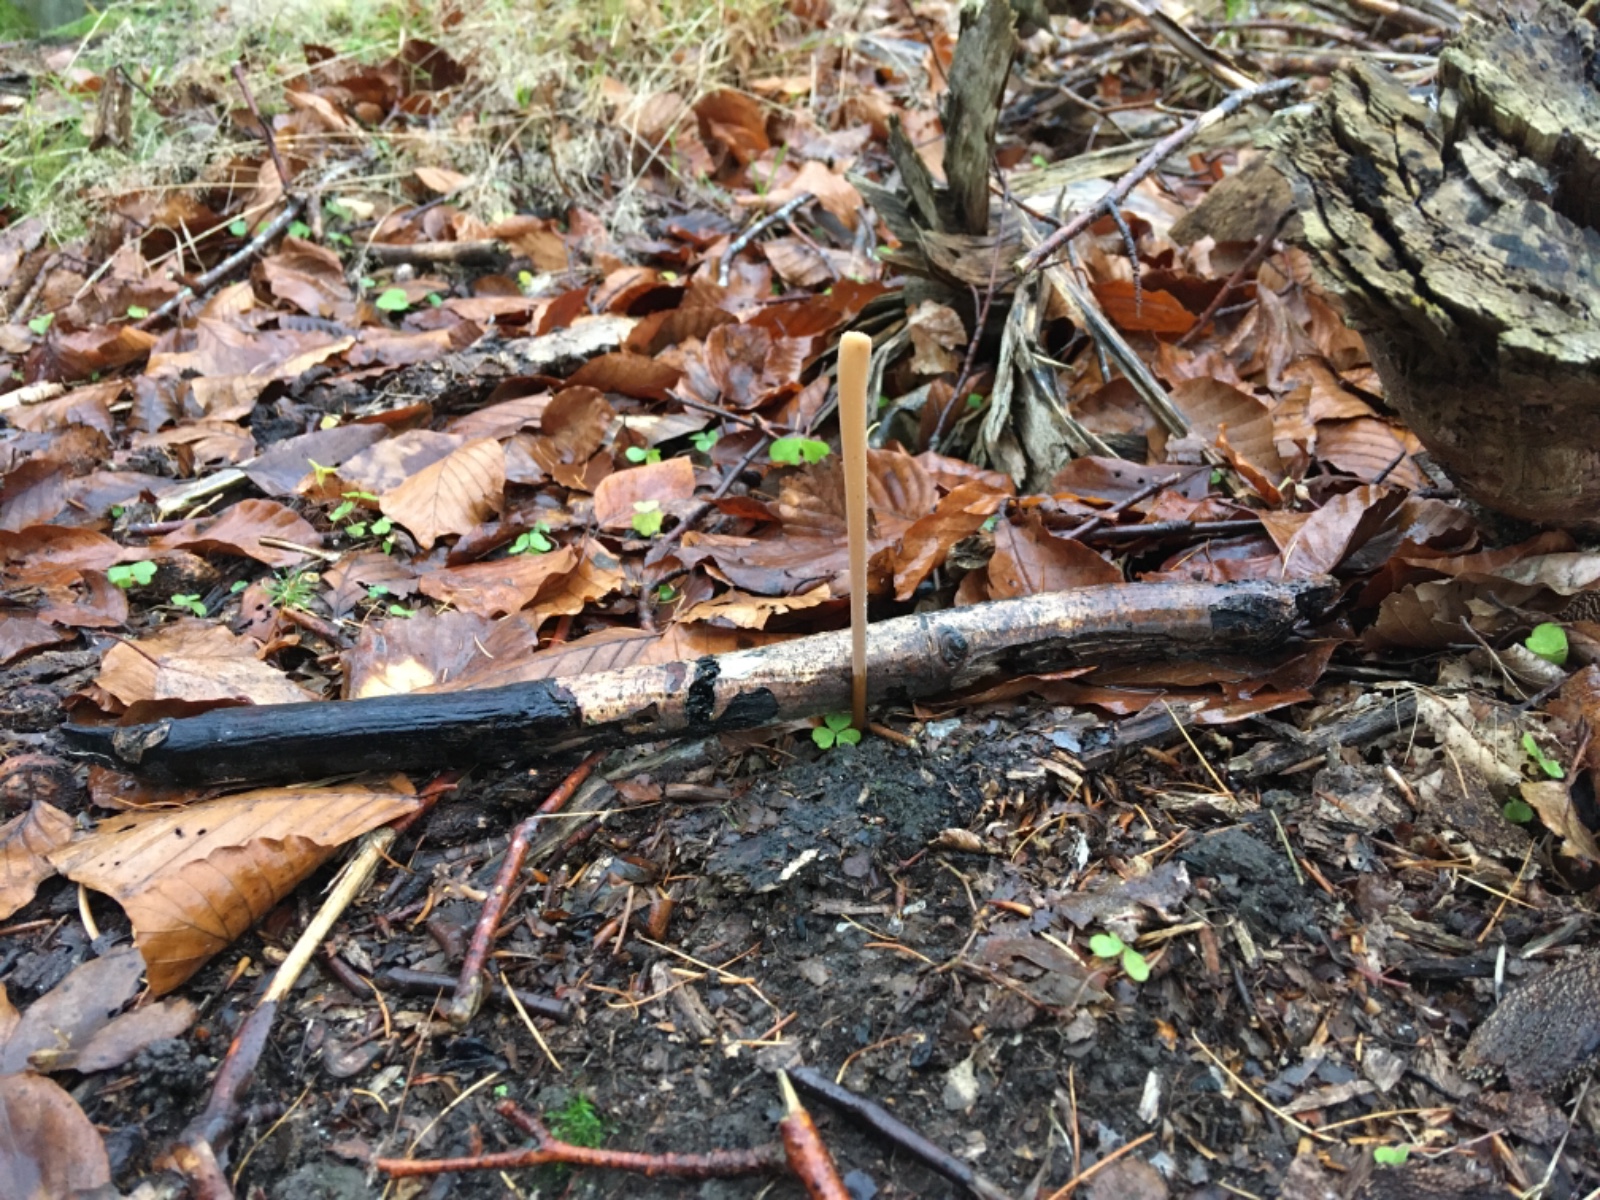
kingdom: Fungi
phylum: Basidiomycota
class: Agaricomycetes
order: Agaricales
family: Typhulaceae
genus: Typhula
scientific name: Typhula fistulosa
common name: pibet rørkølle
